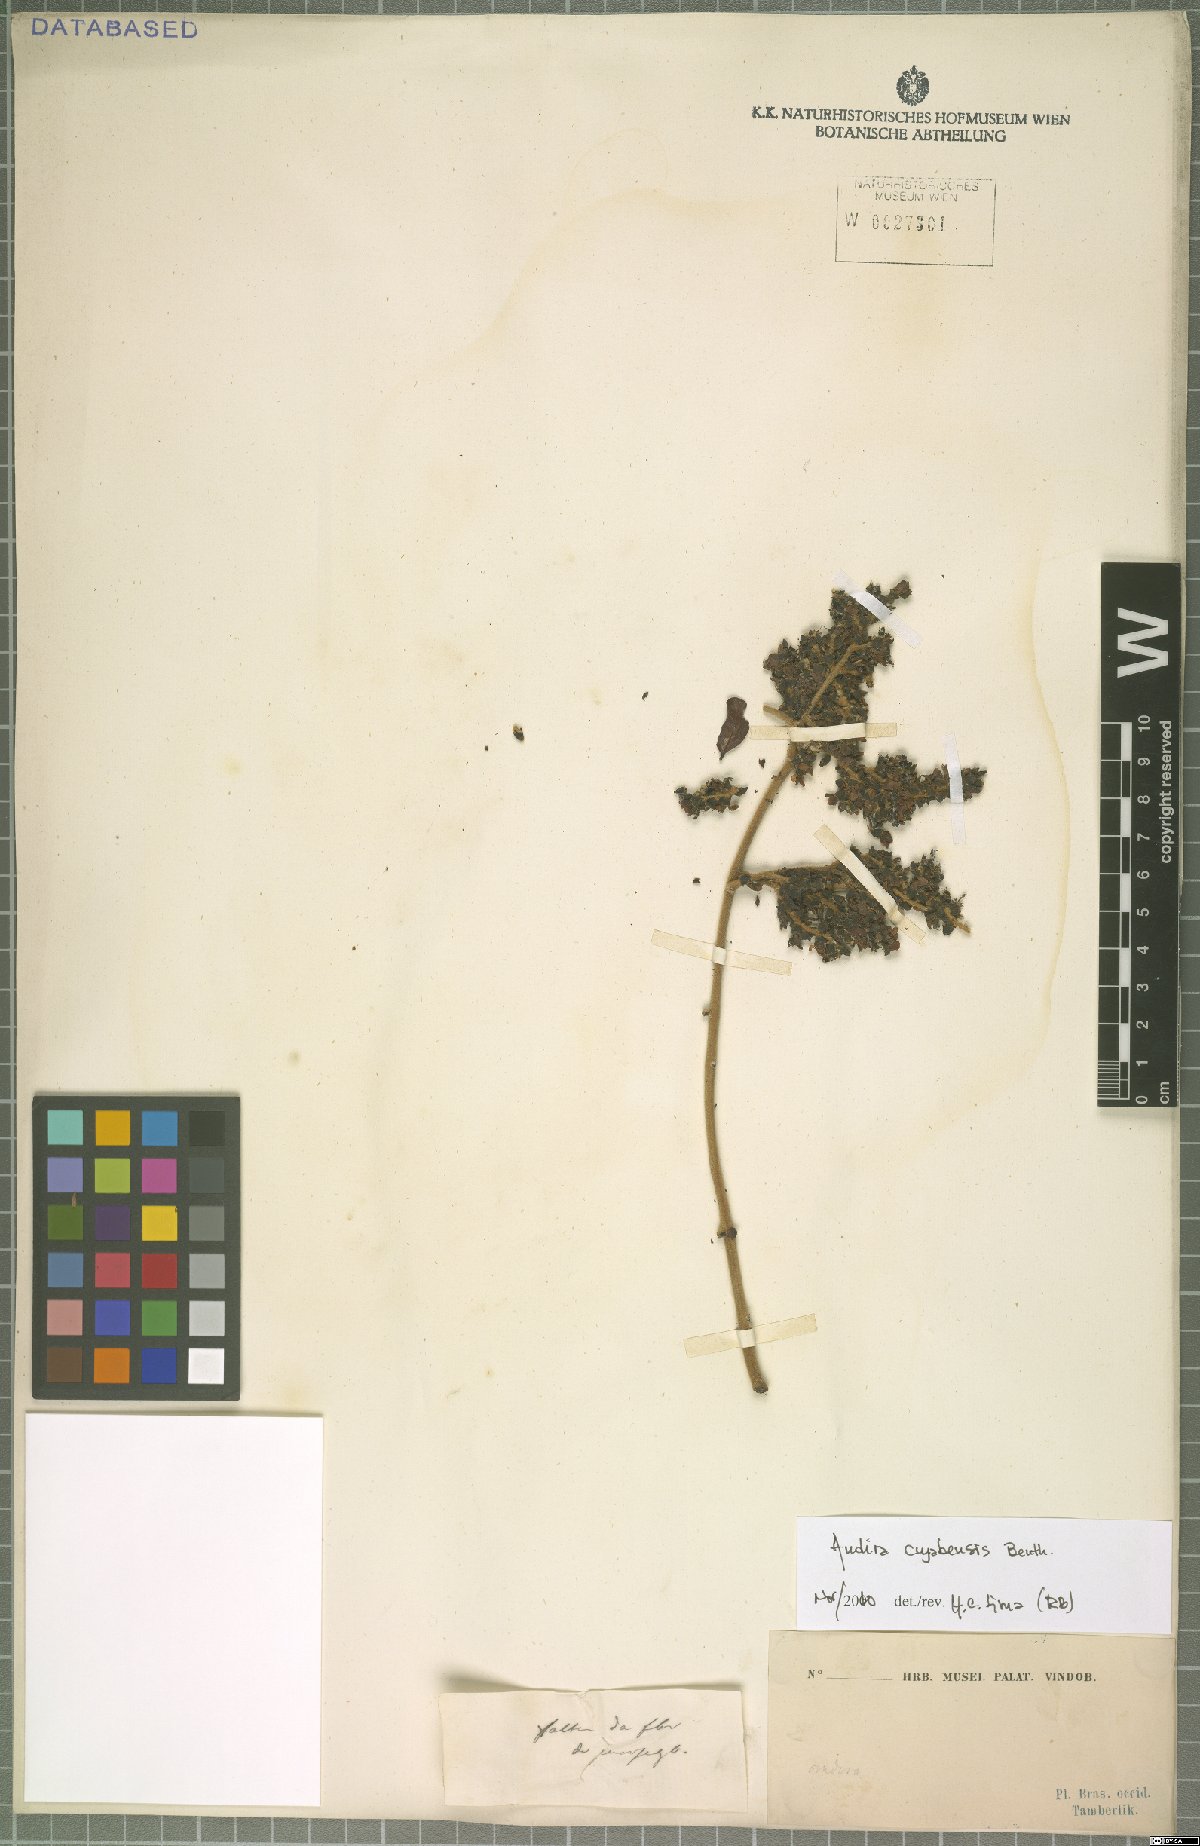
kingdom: Plantae
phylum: Tracheophyta
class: Magnoliopsida
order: Fabales
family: Fabaceae
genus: Andira
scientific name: Andira cujabensis
